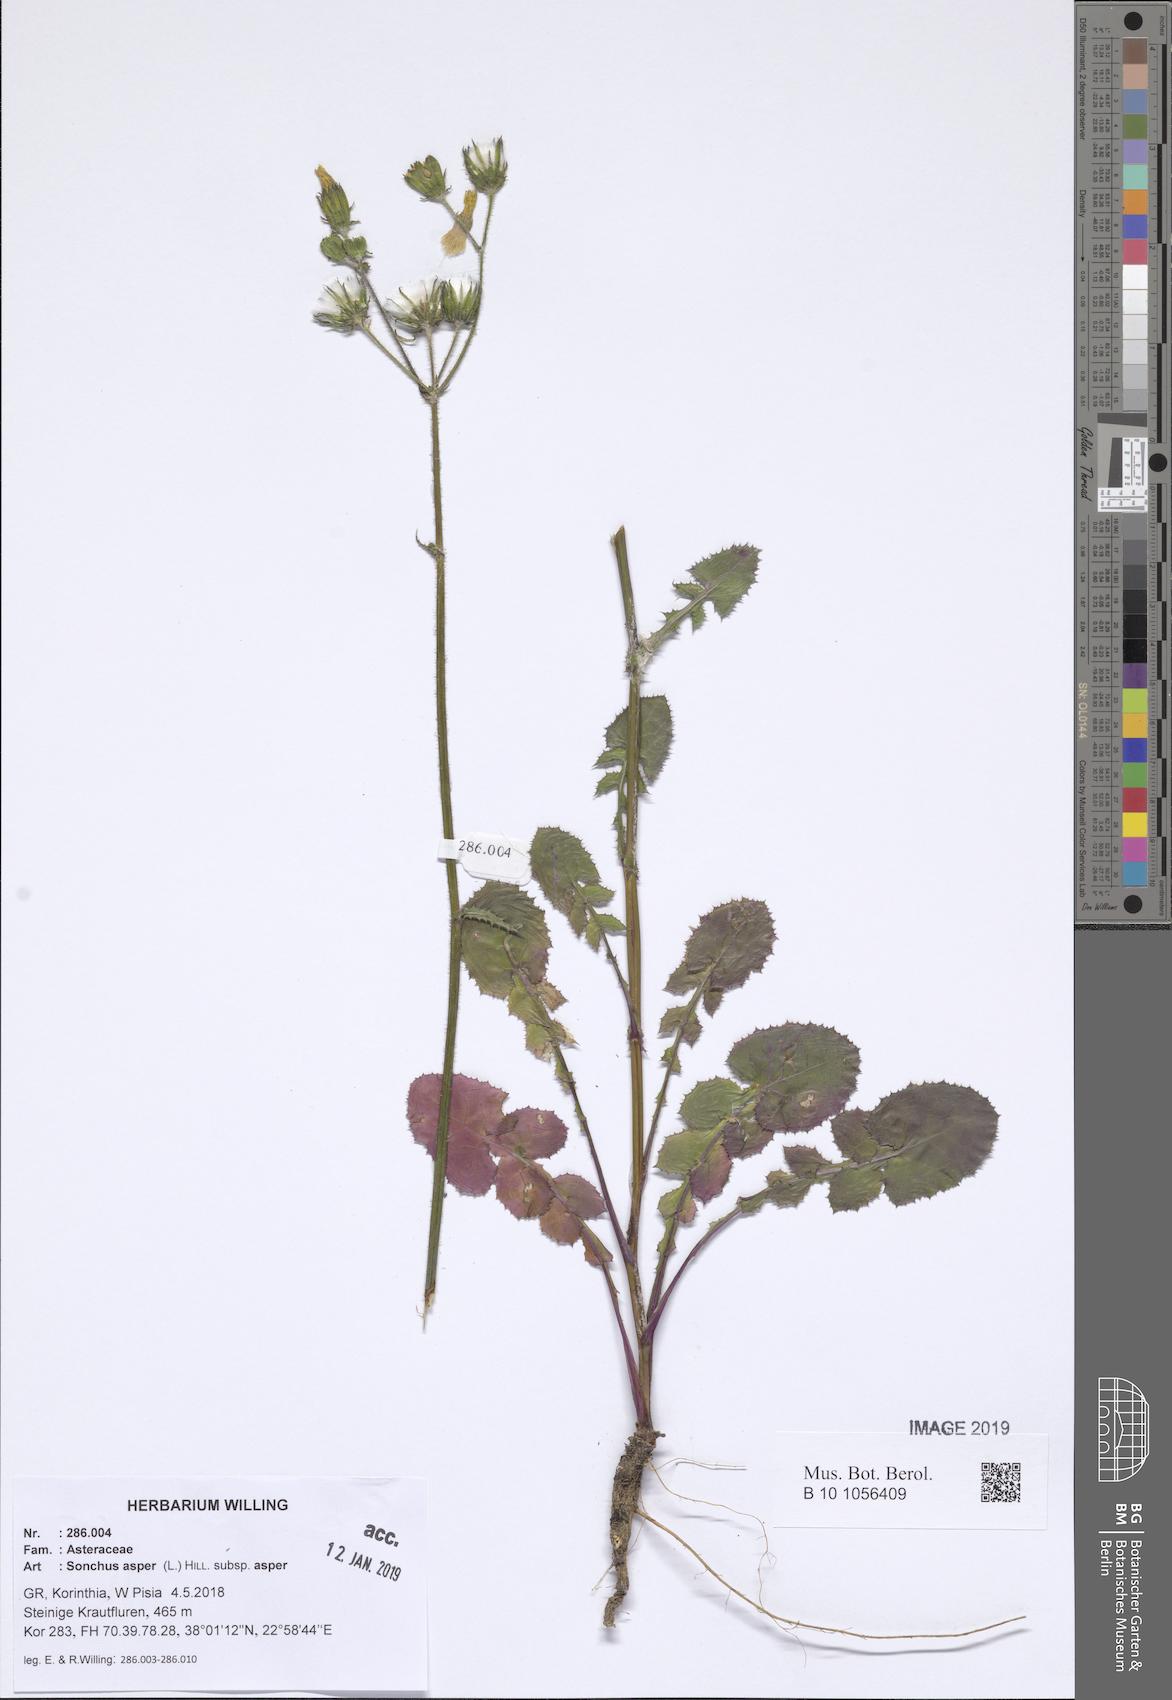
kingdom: Plantae
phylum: Tracheophyta
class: Magnoliopsida
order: Asterales
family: Asteraceae
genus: Sonchus
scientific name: Sonchus asper
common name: Prickly sow-thistle
